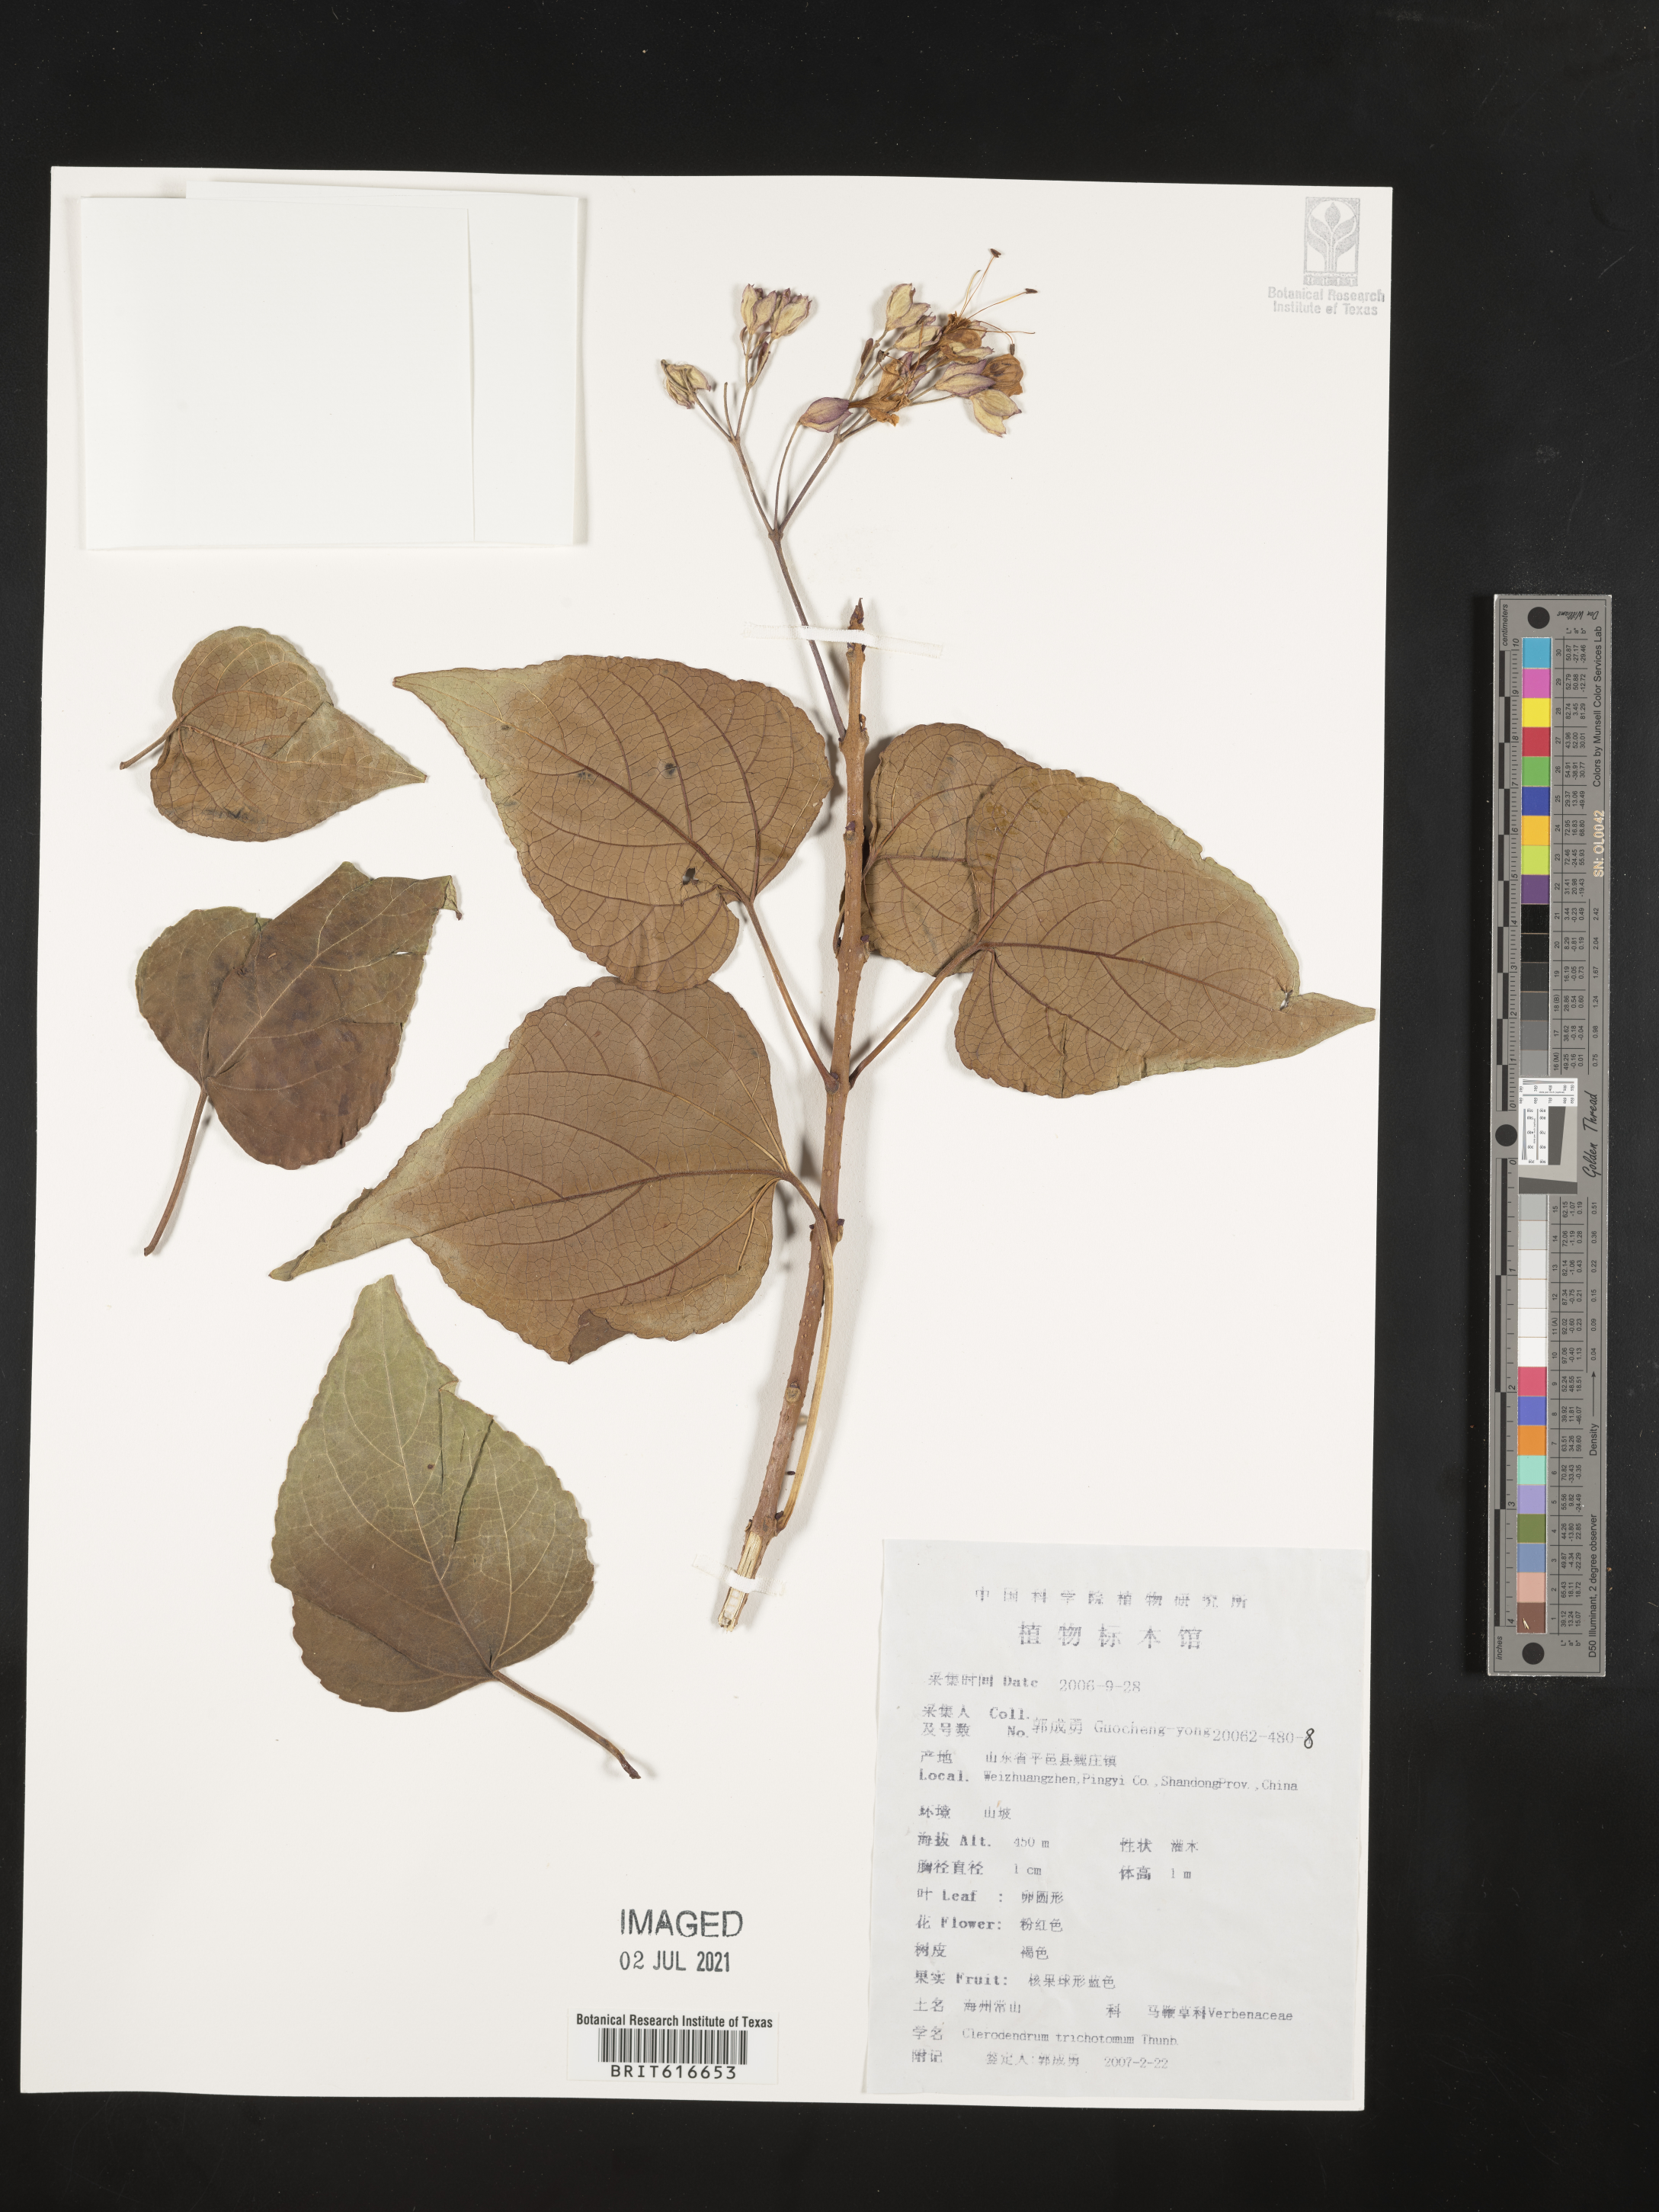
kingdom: Plantae
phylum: Tracheophyta
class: Magnoliopsida
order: Lamiales
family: Lamiaceae
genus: Clerodendrum
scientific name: Clerodendrum trichotomum
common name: Harlequin glorybower
